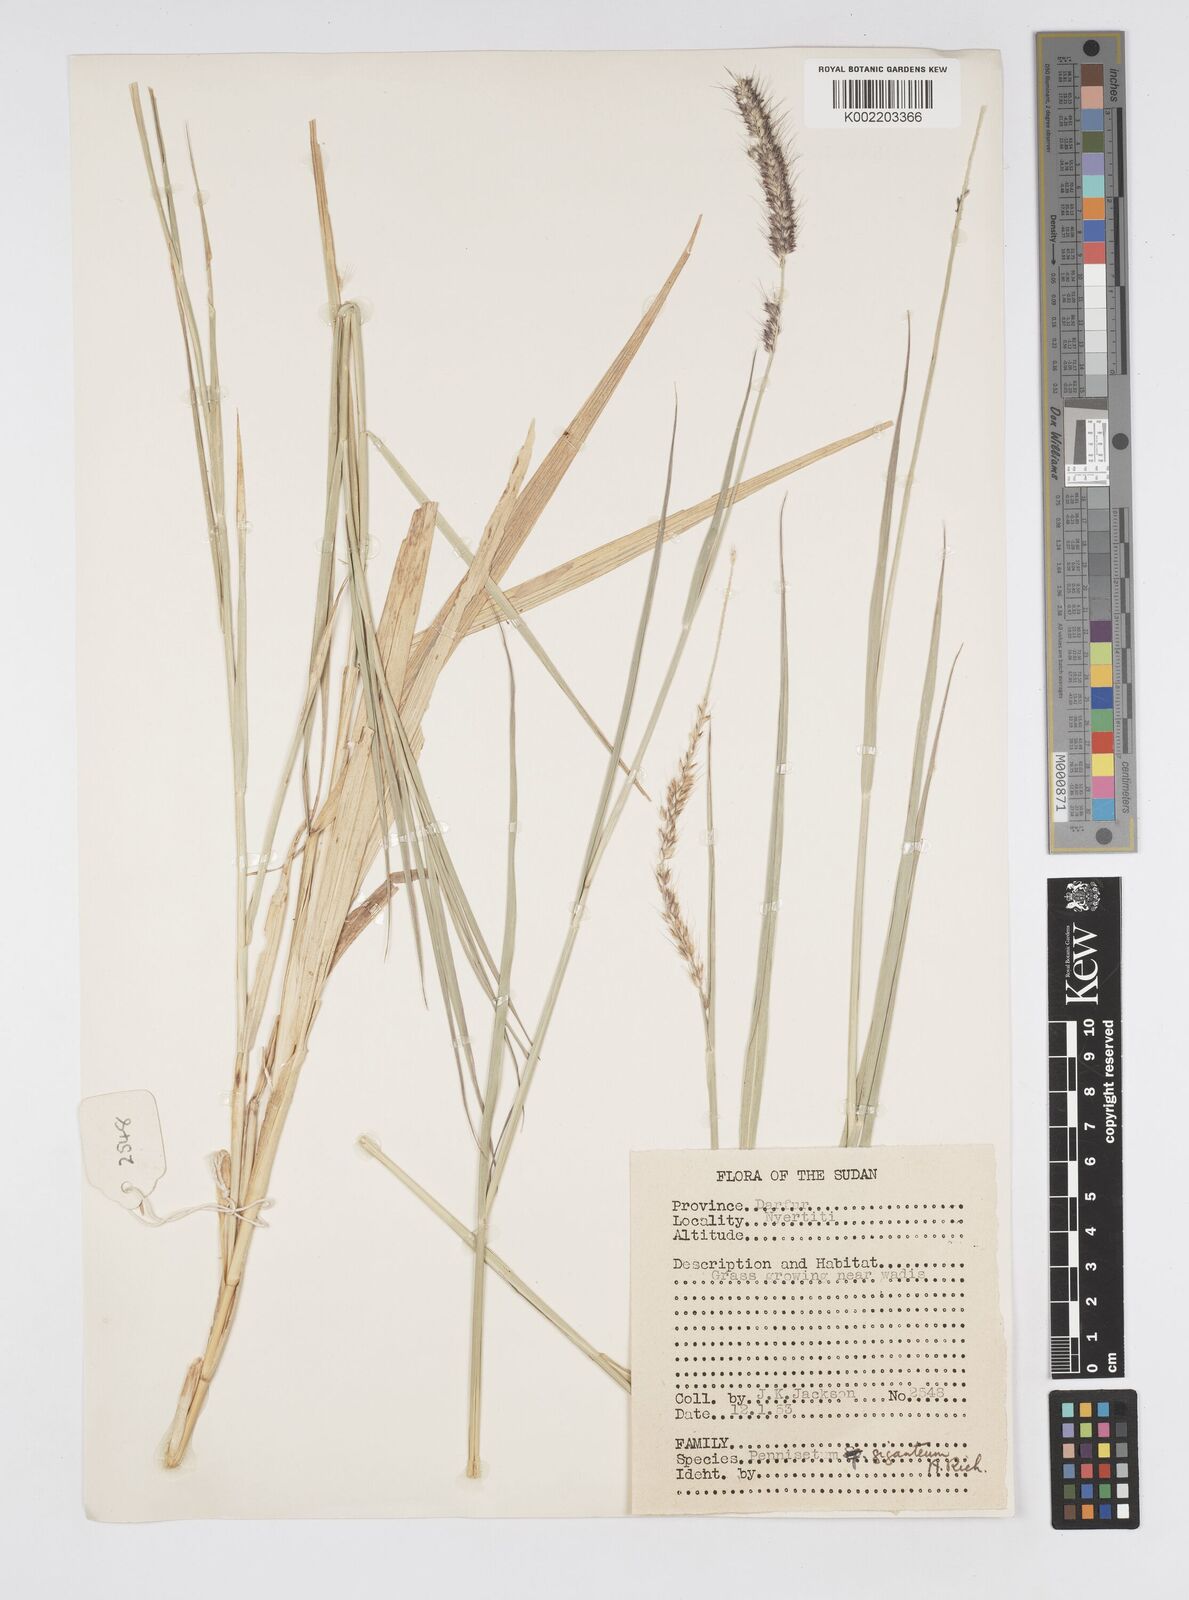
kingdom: Plantae
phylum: Tracheophyta
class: Liliopsida
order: Poales
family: Poaceae
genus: Cenchrus
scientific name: Cenchrus caudatus
